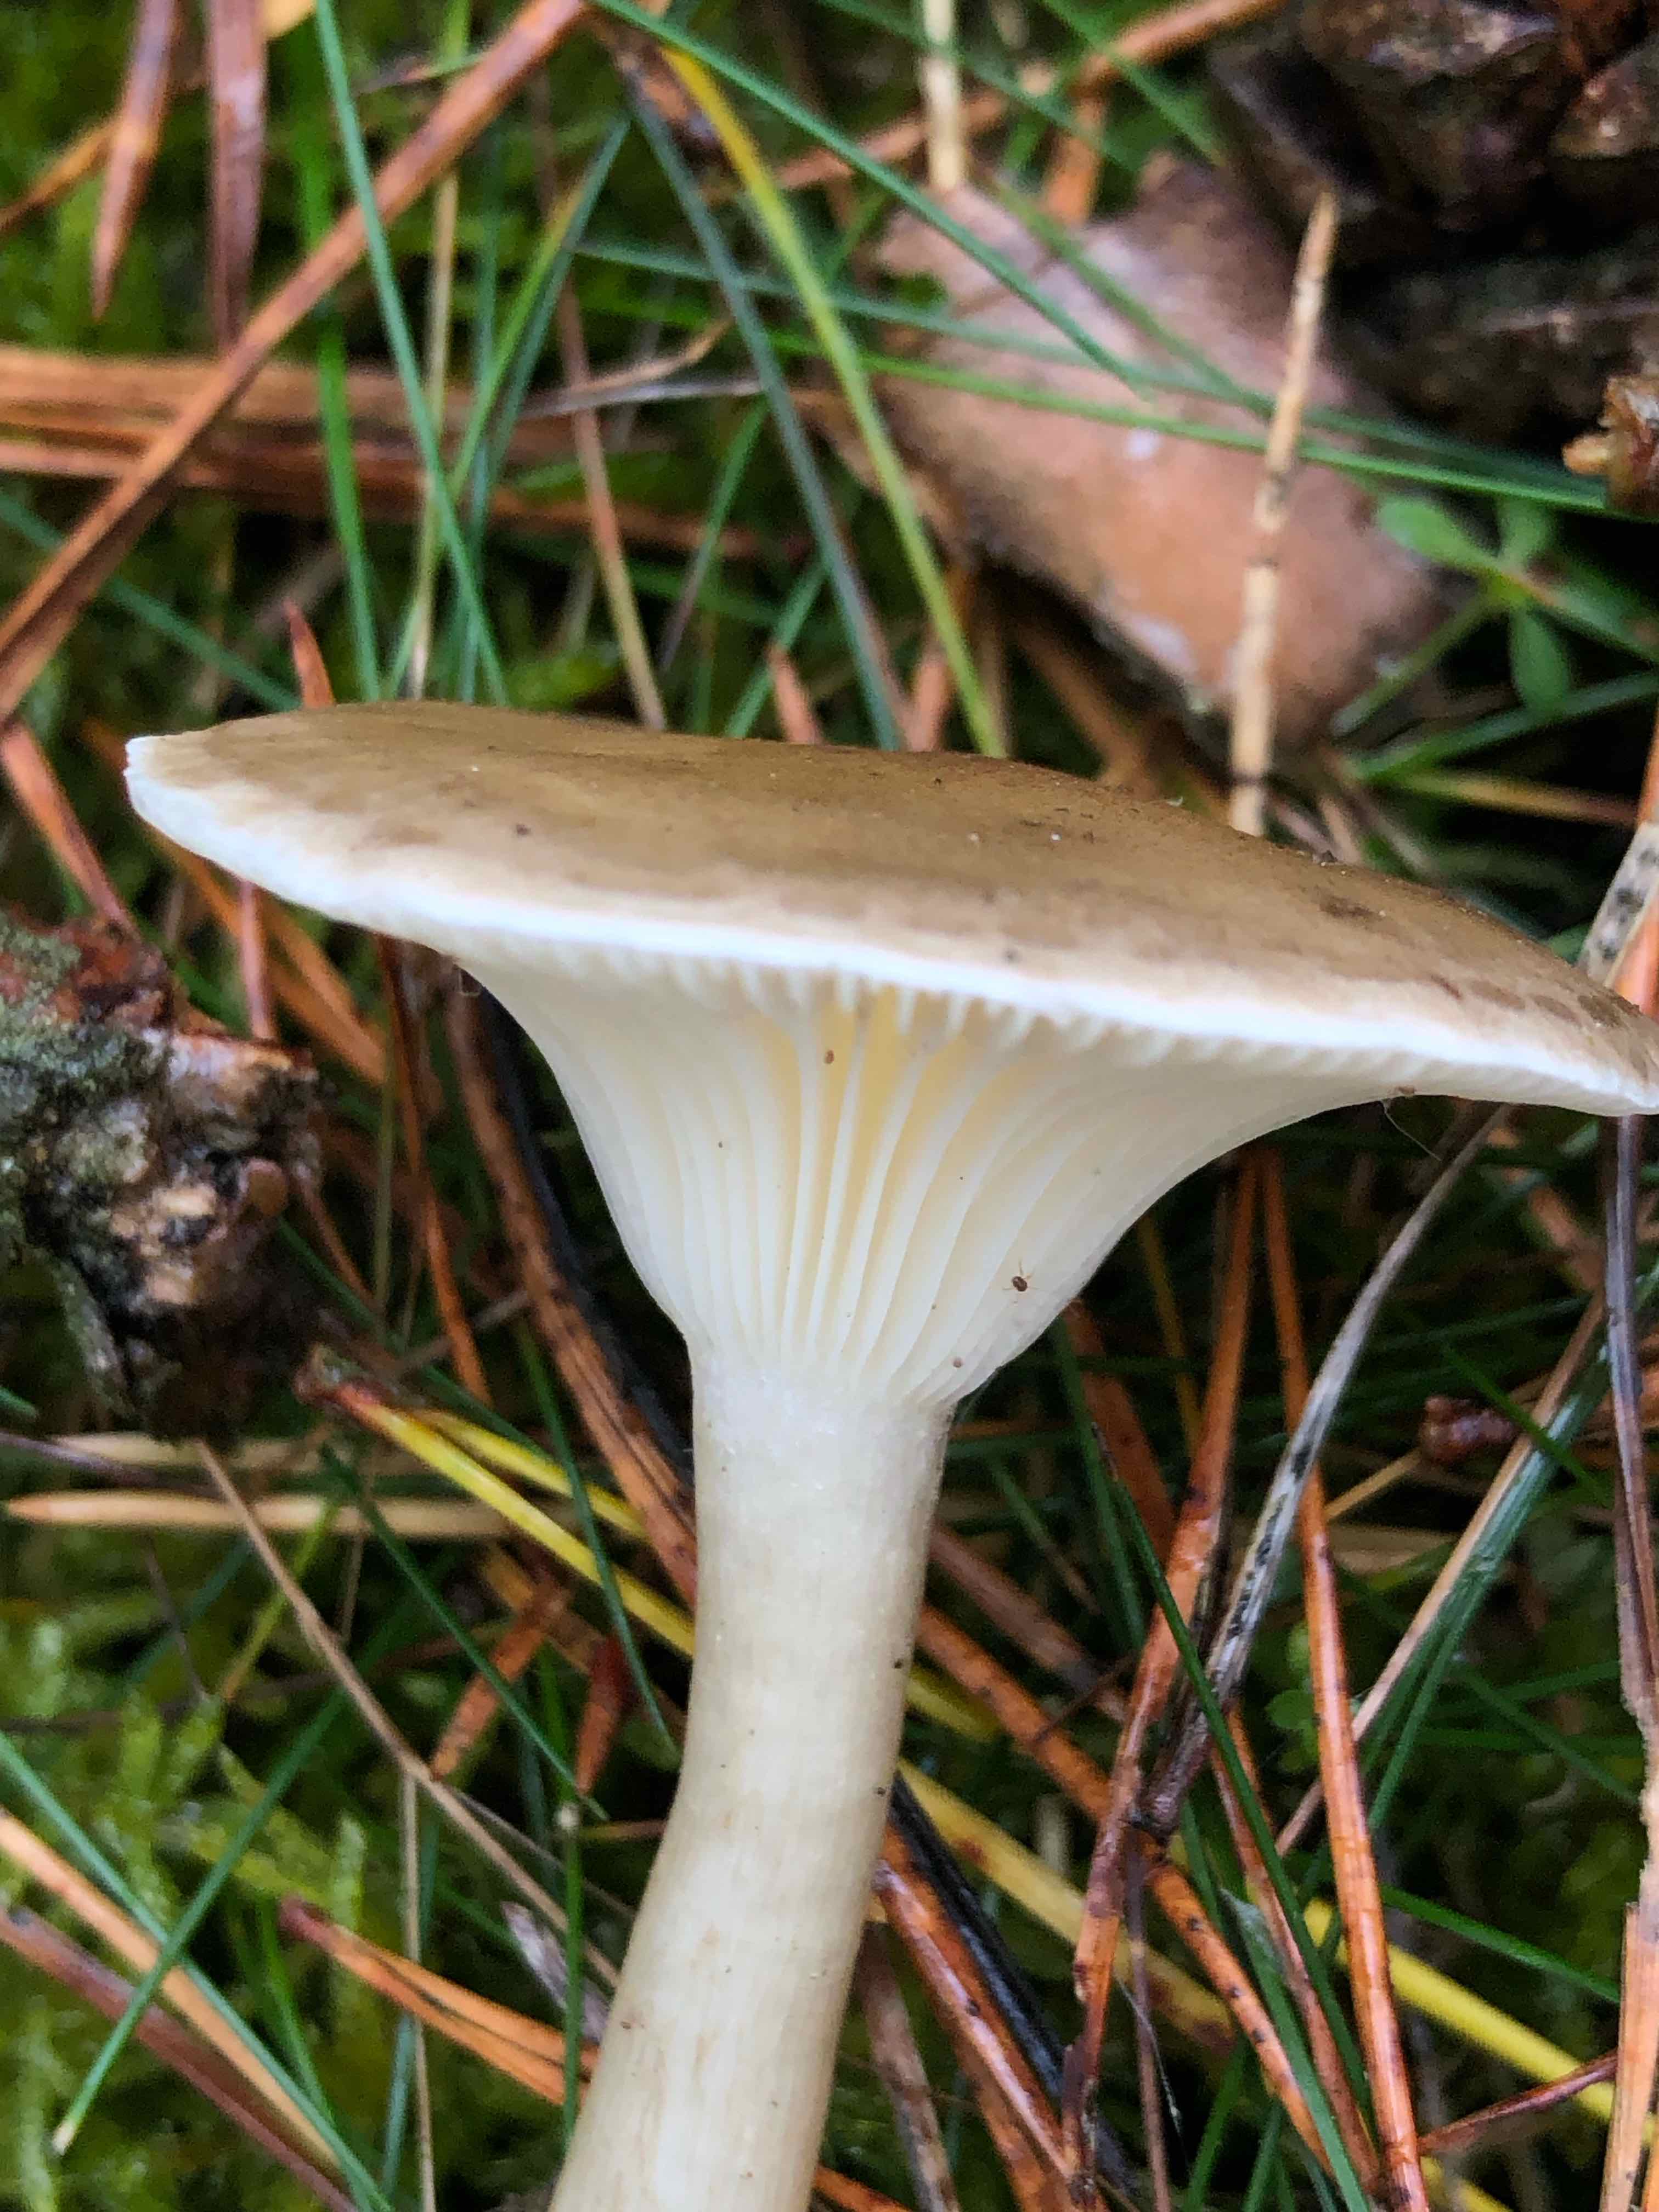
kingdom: Fungi
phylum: Basidiomycota
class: Agaricomycetes
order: Agaricales
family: Hygrophoraceae
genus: Ampulloclitocybe
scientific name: Ampulloclitocybe clavipes
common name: køllefod
